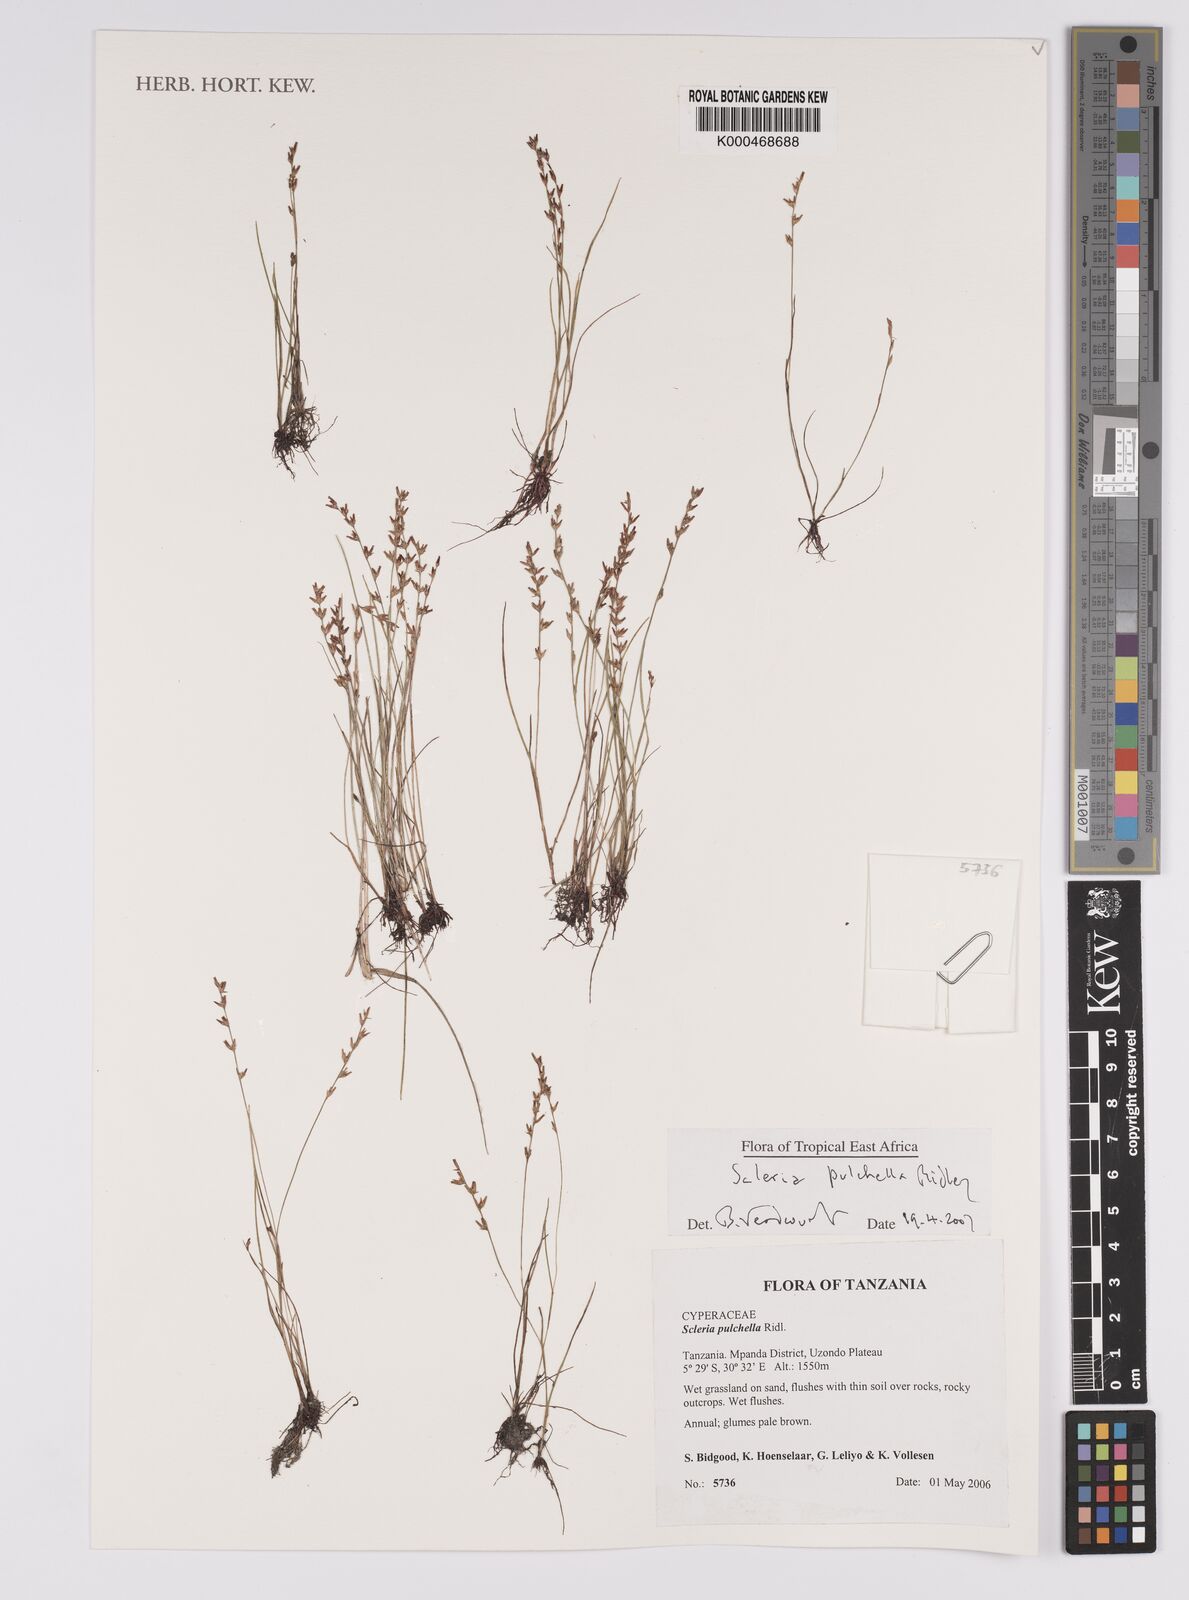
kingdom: Plantae
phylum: Tracheophyta
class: Liliopsida
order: Poales
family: Cyperaceae
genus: Scleria
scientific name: Scleria pulchella
